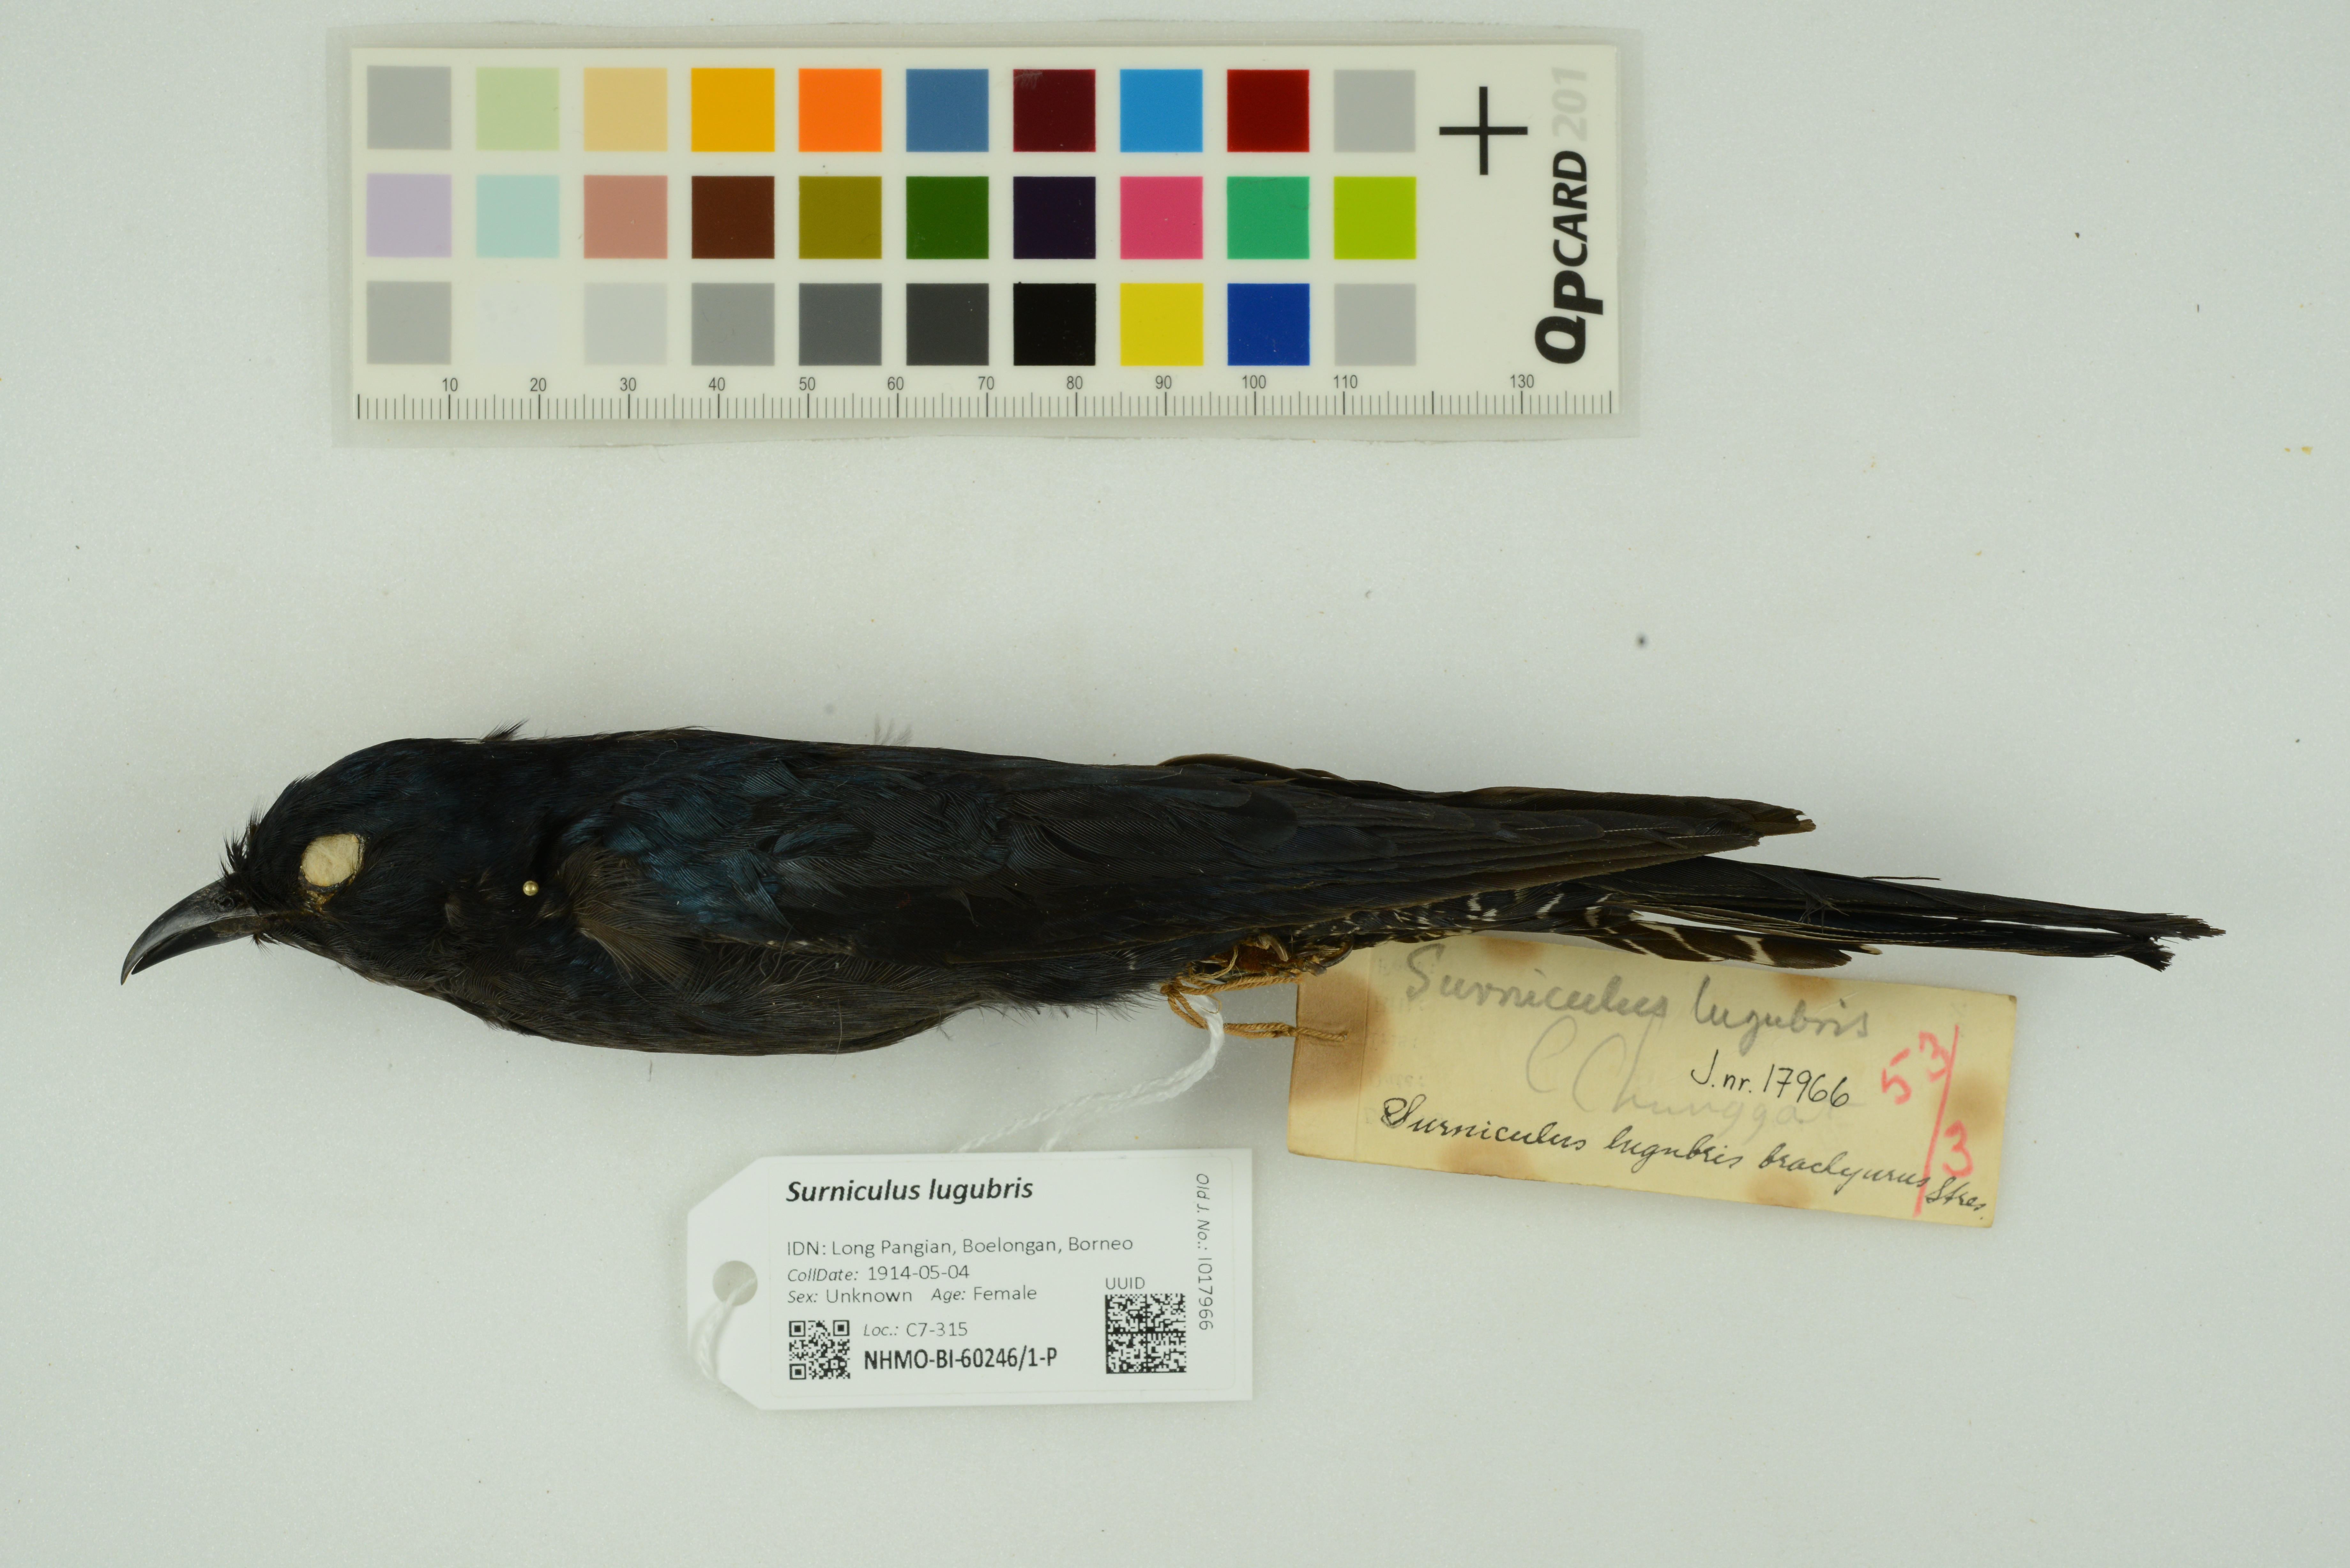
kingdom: Animalia
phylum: Chordata
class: Aves
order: Cuculiformes
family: Cuculidae
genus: Surniculus
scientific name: Surniculus lugubris
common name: Square-tailed drongo-cuckoo
